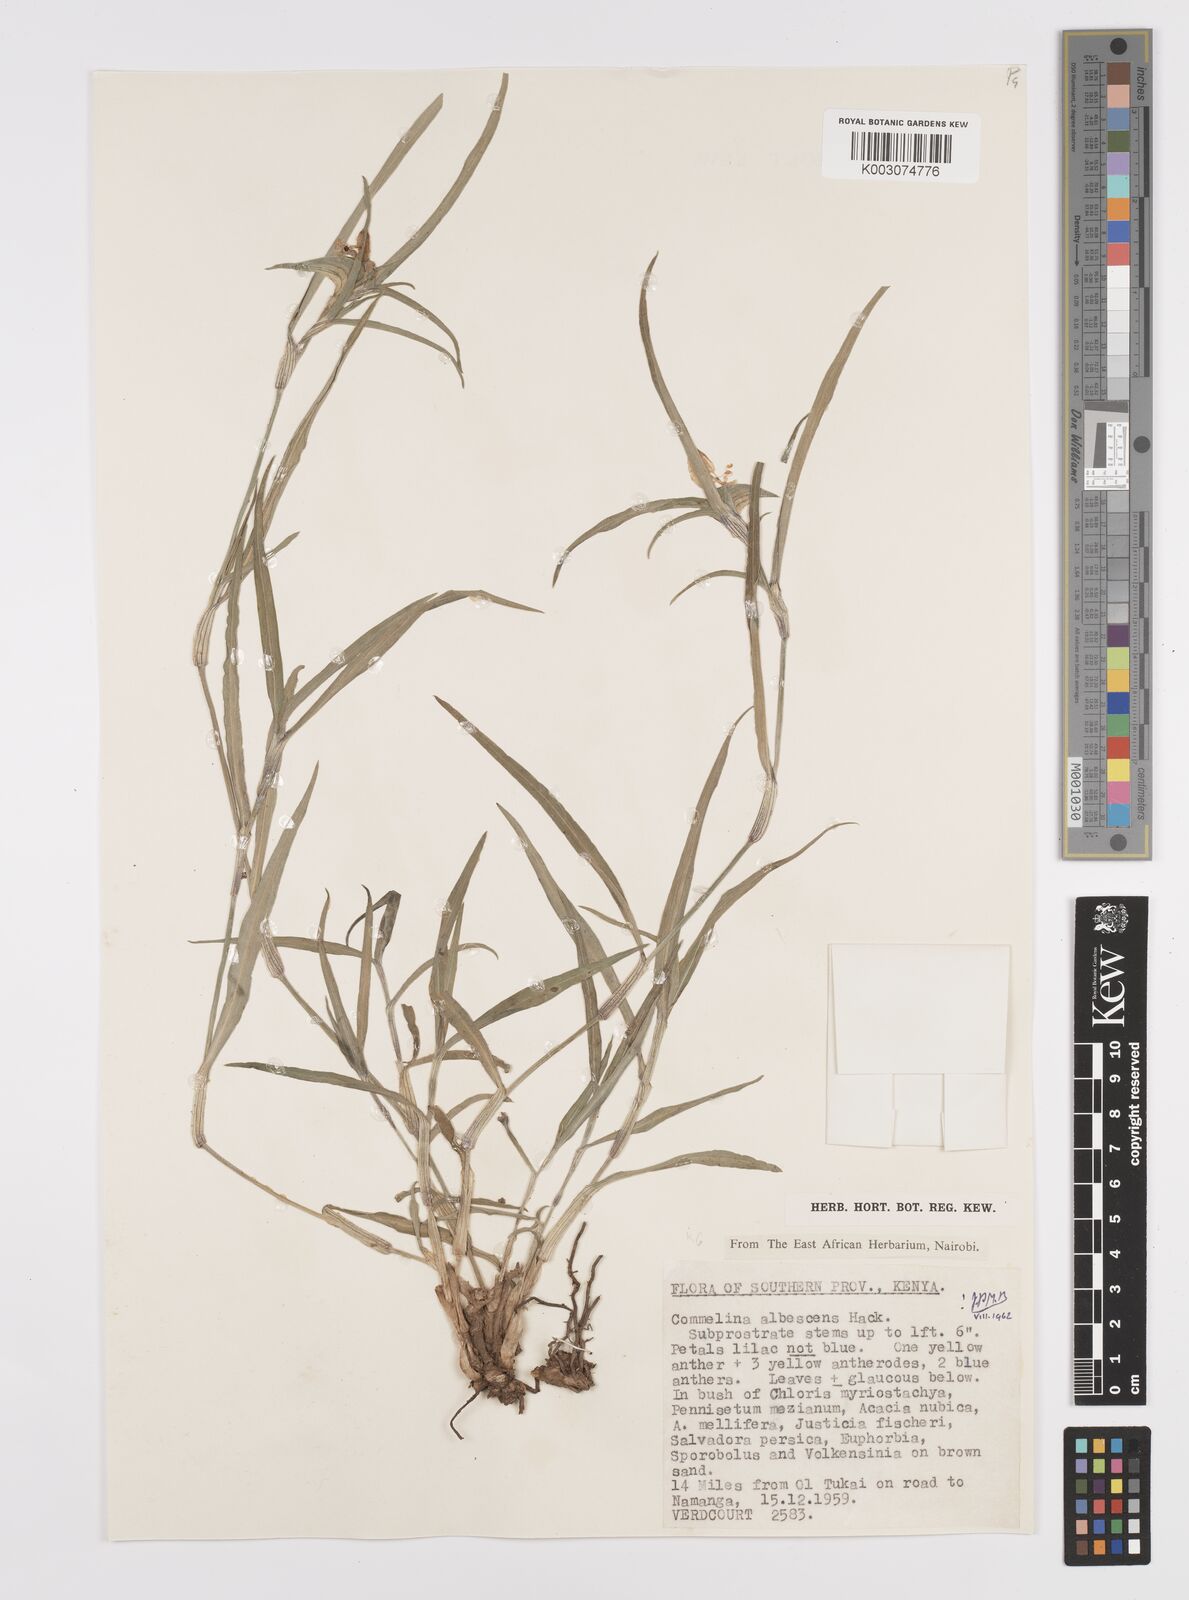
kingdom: Plantae
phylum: Tracheophyta
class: Liliopsida
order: Commelinales
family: Commelinaceae
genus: Commelina
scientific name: Commelina albescens
